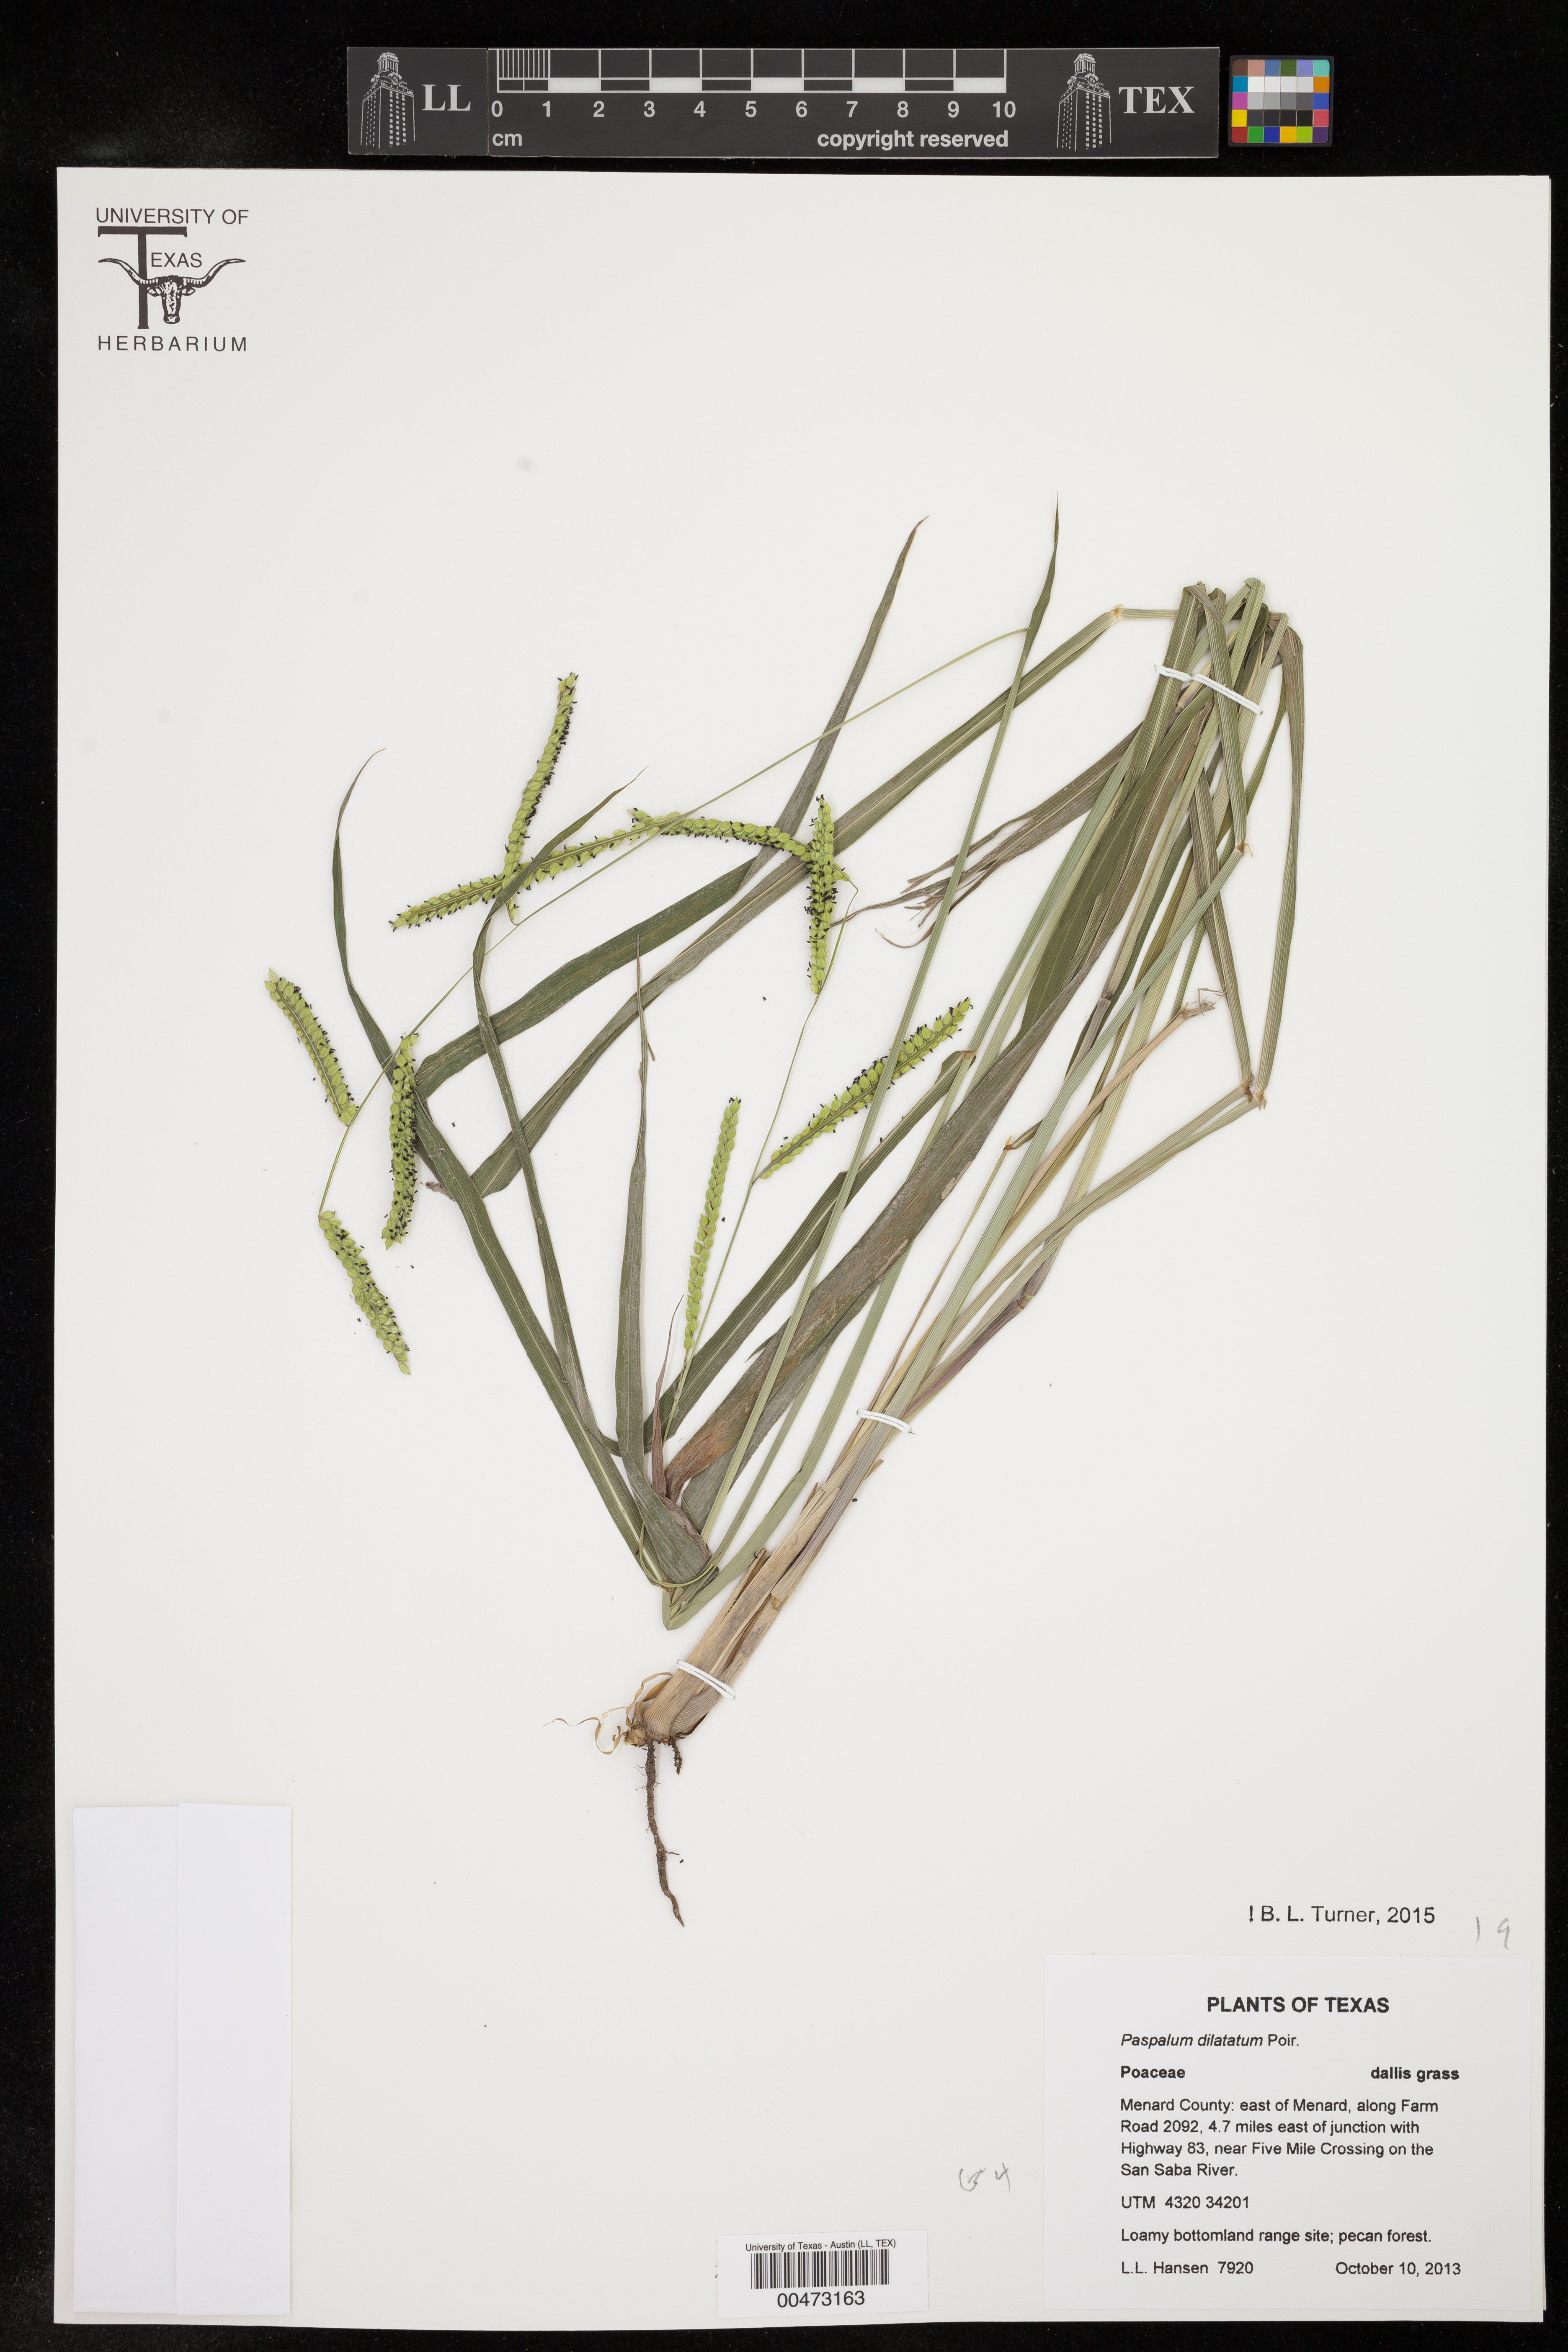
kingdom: Plantae
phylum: Tracheophyta
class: Liliopsida
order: Poales
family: Poaceae
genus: Paspalum
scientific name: Paspalum dilatatum
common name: Dallisgrass
